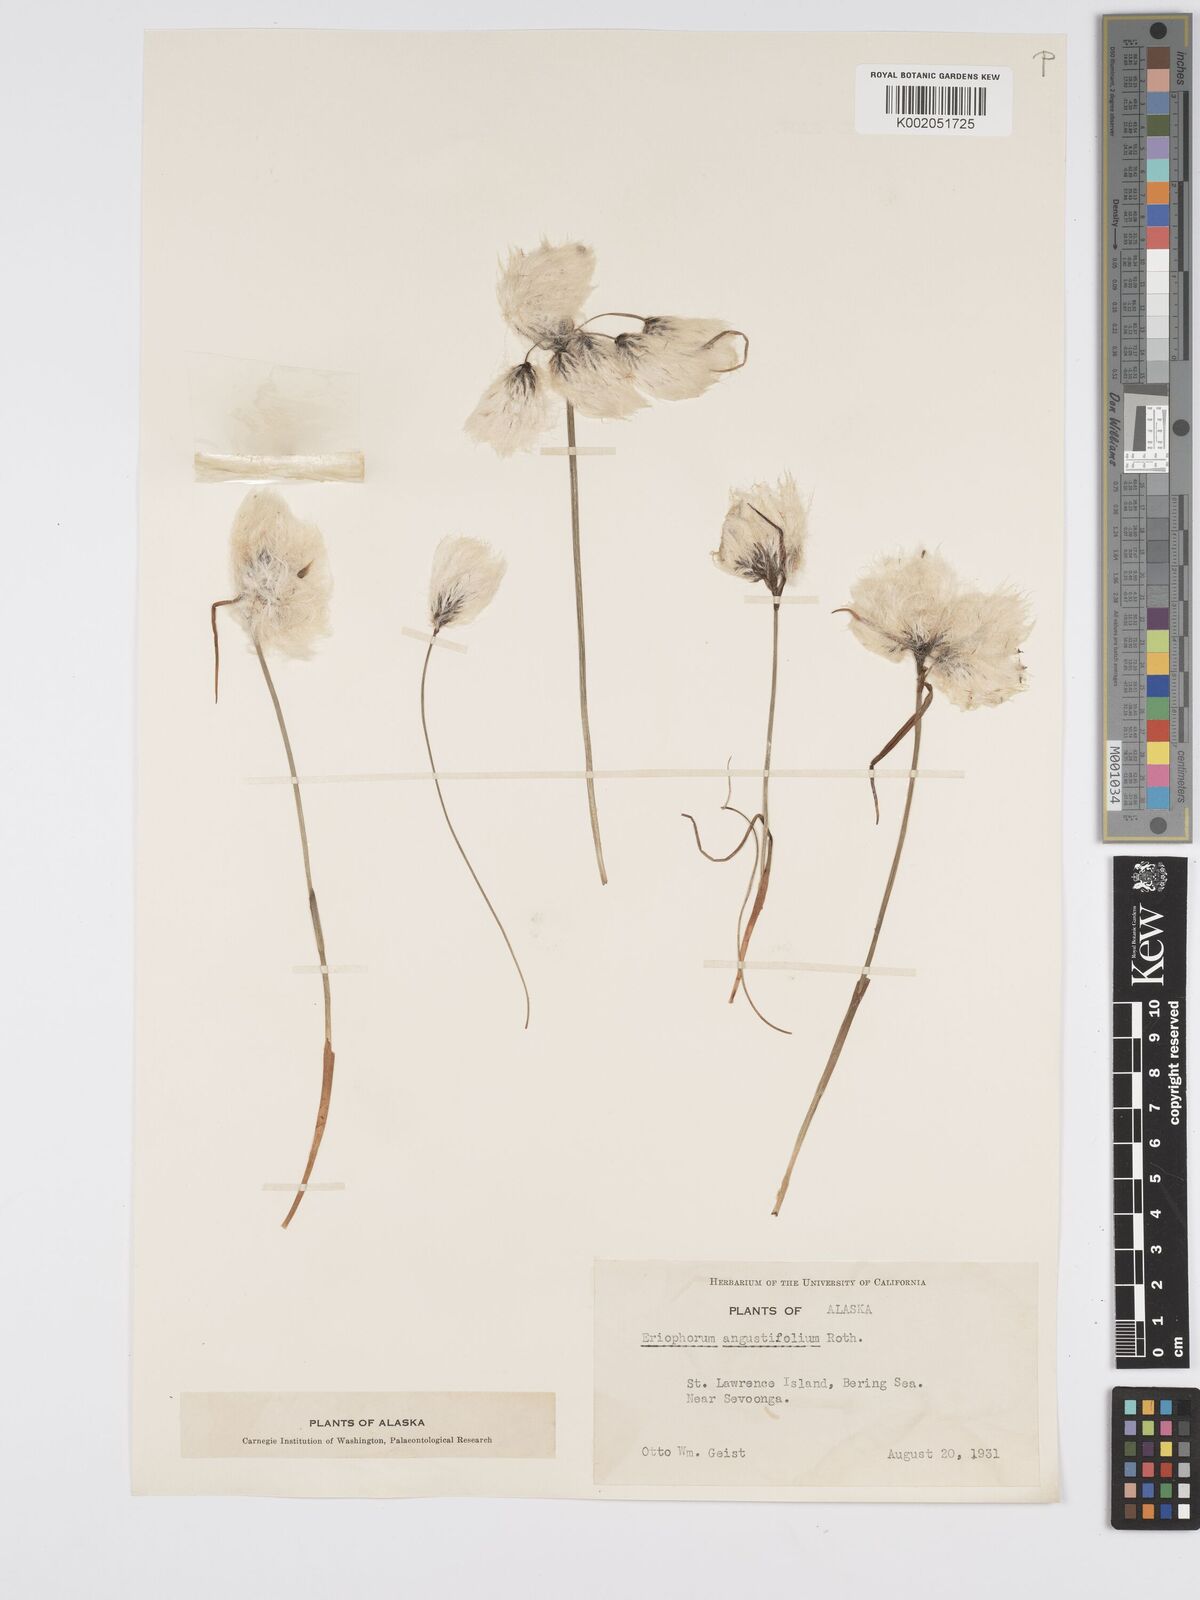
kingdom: Plantae
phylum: Tracheophyta
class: Liliopsida
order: Poales
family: Cyperaceae
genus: Eriophorum
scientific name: Eriophorum angustifolium
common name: Common cottongrass
